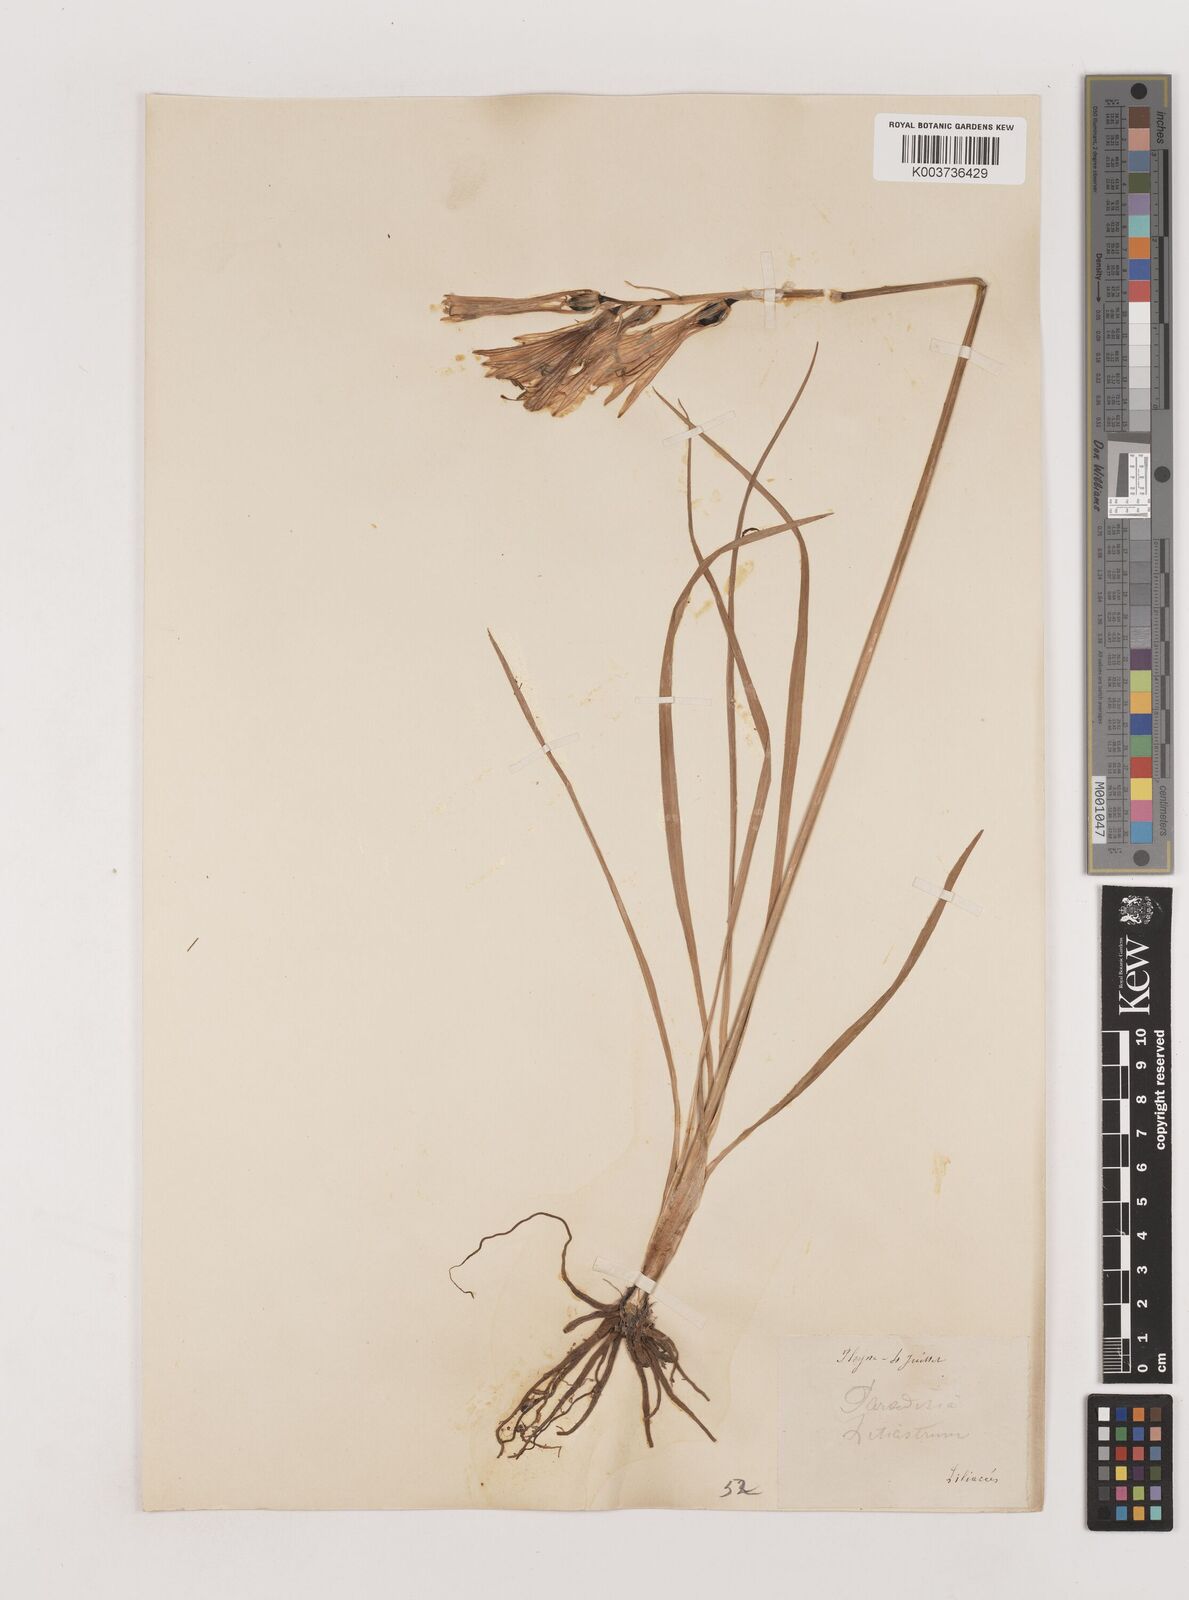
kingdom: Plantae
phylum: Tracheophyta
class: Liliopsida
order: Asparagales
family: Asparagaceae
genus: Paradisea
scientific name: Paradisea liliastrum
